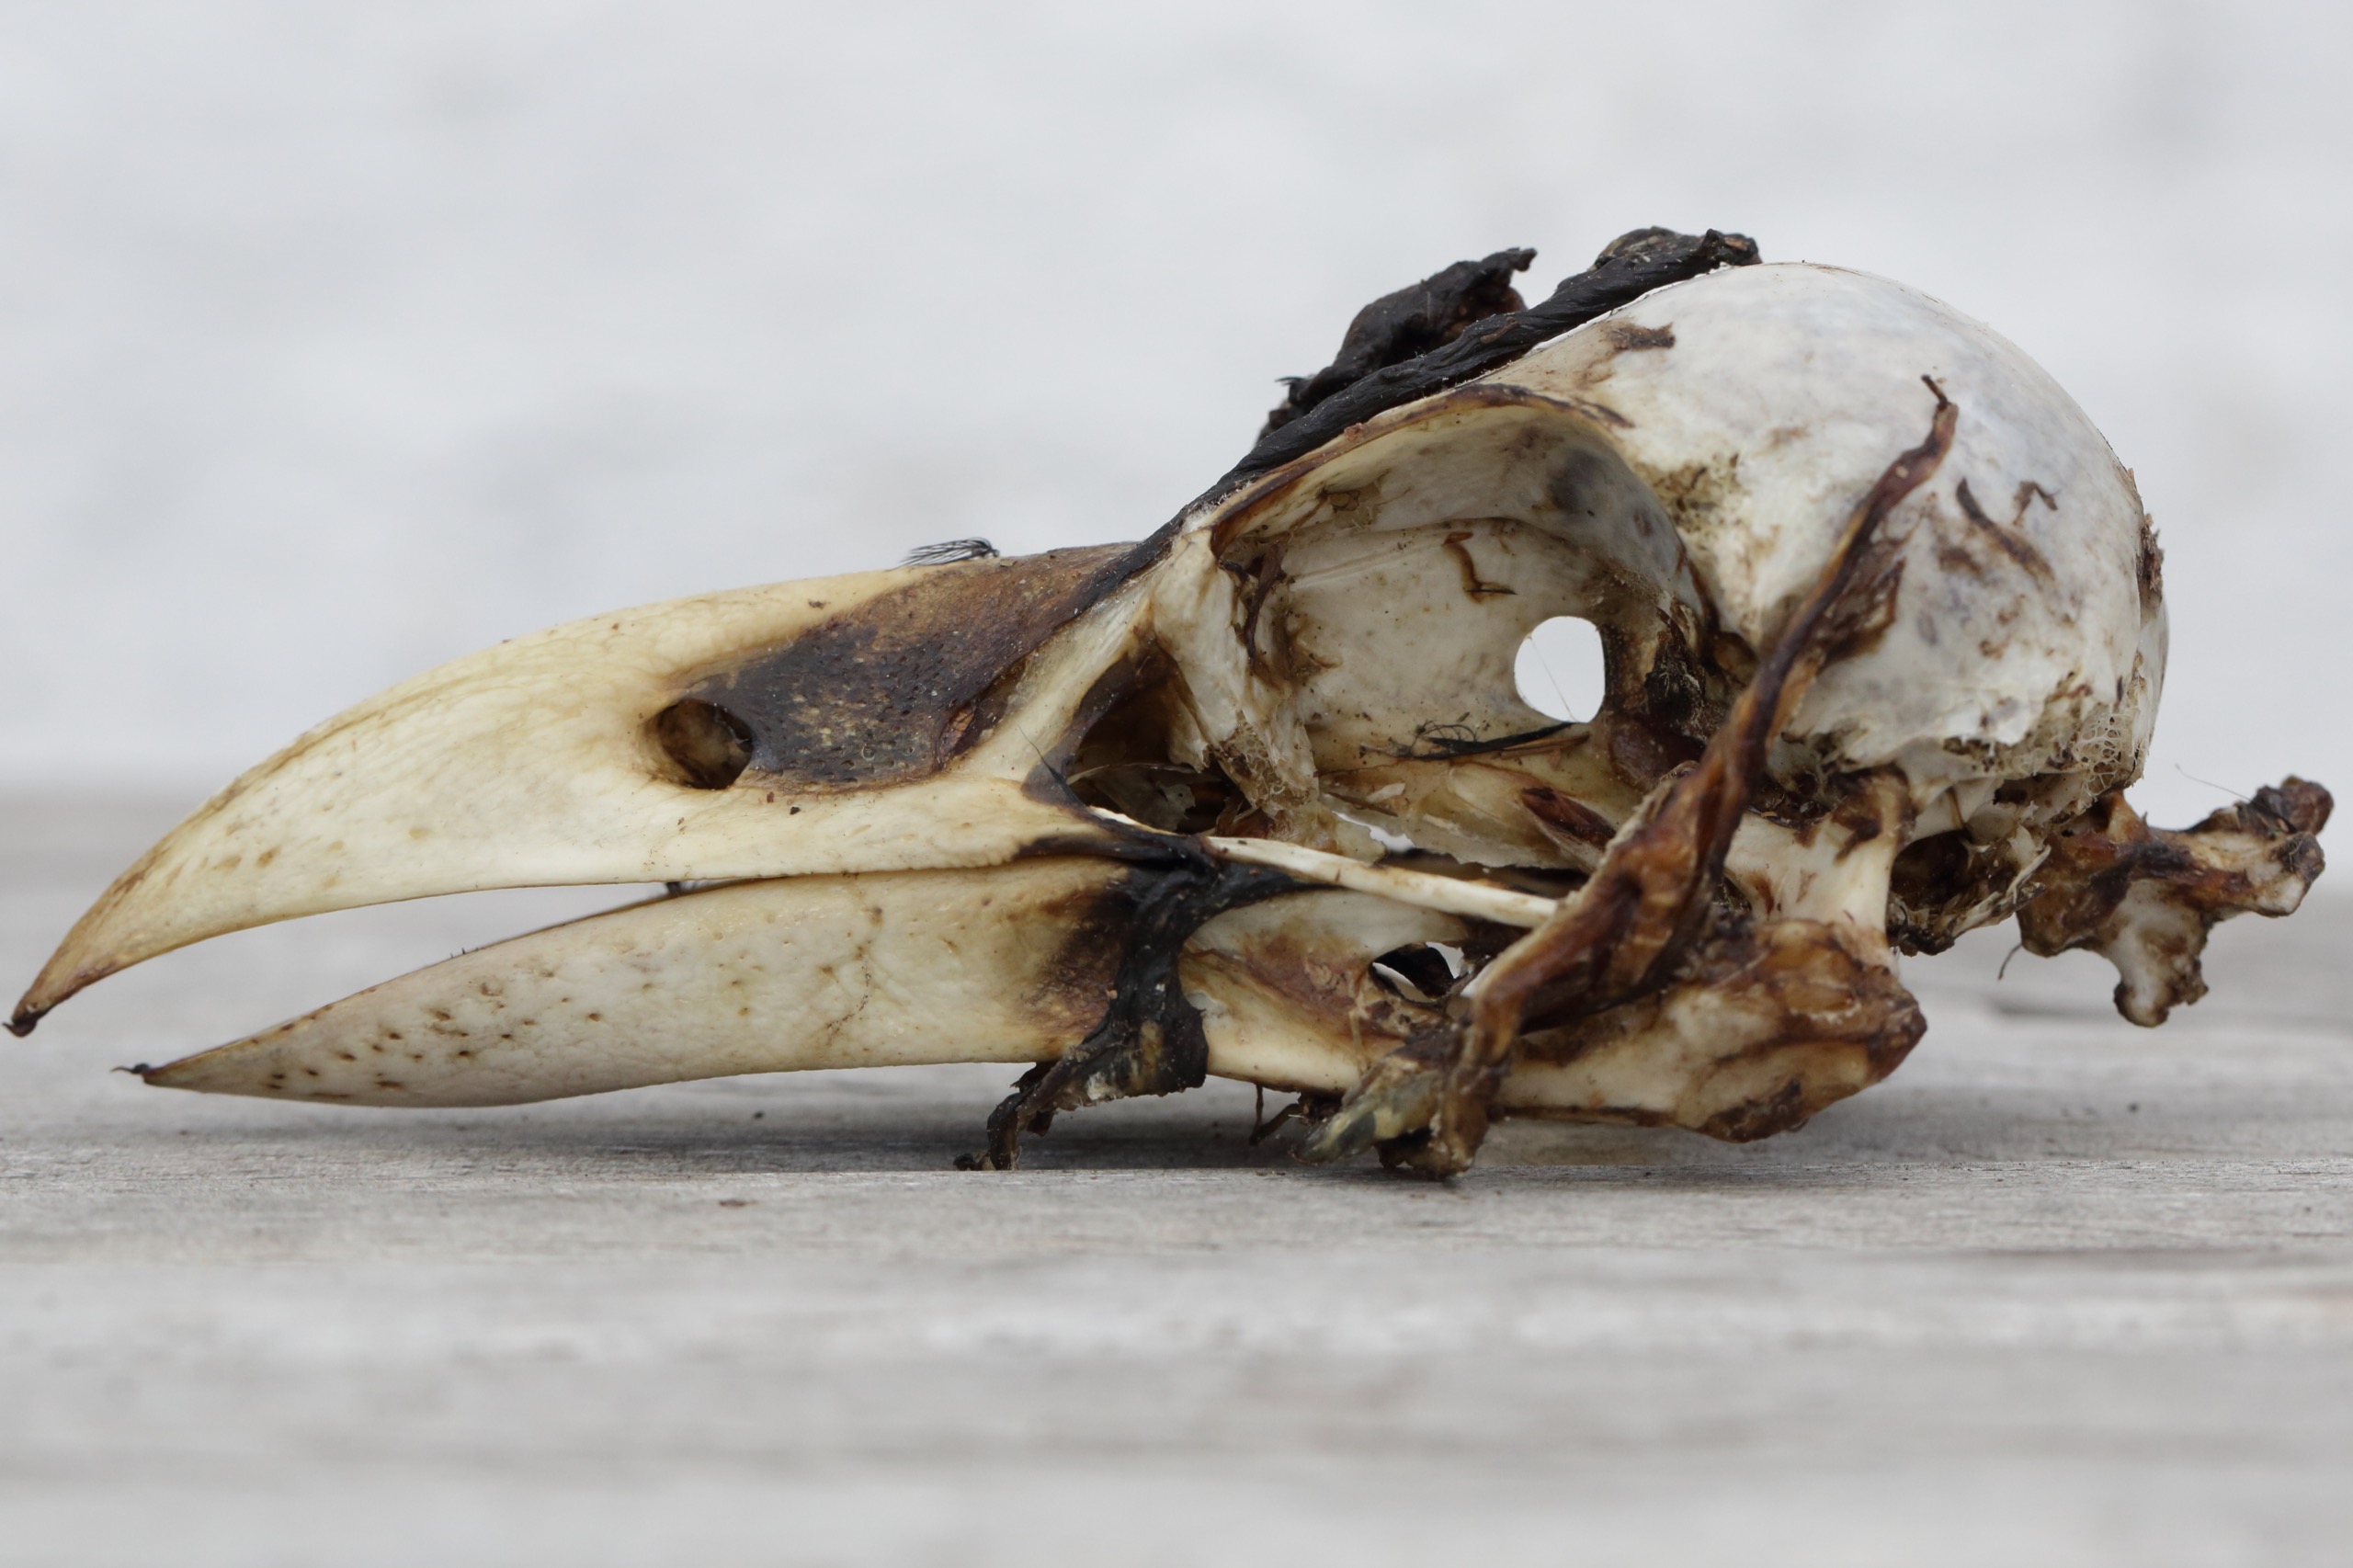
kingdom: Animalia
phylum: Chordata
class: Aves
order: Passeriformes
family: Corvidae
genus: Corvus
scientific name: Corvus corax
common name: Ravn
